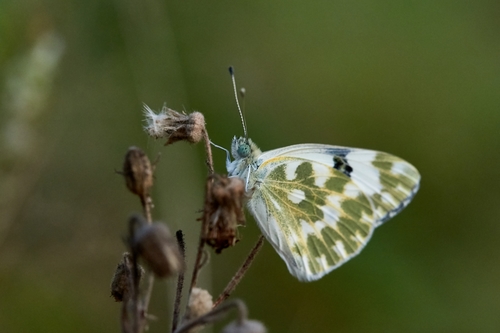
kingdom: Animalia
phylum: Arthropoda
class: Insecta
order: Lepidoptera
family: Pieridae
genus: Pontia
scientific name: Pontia daplidice
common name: Bath white
